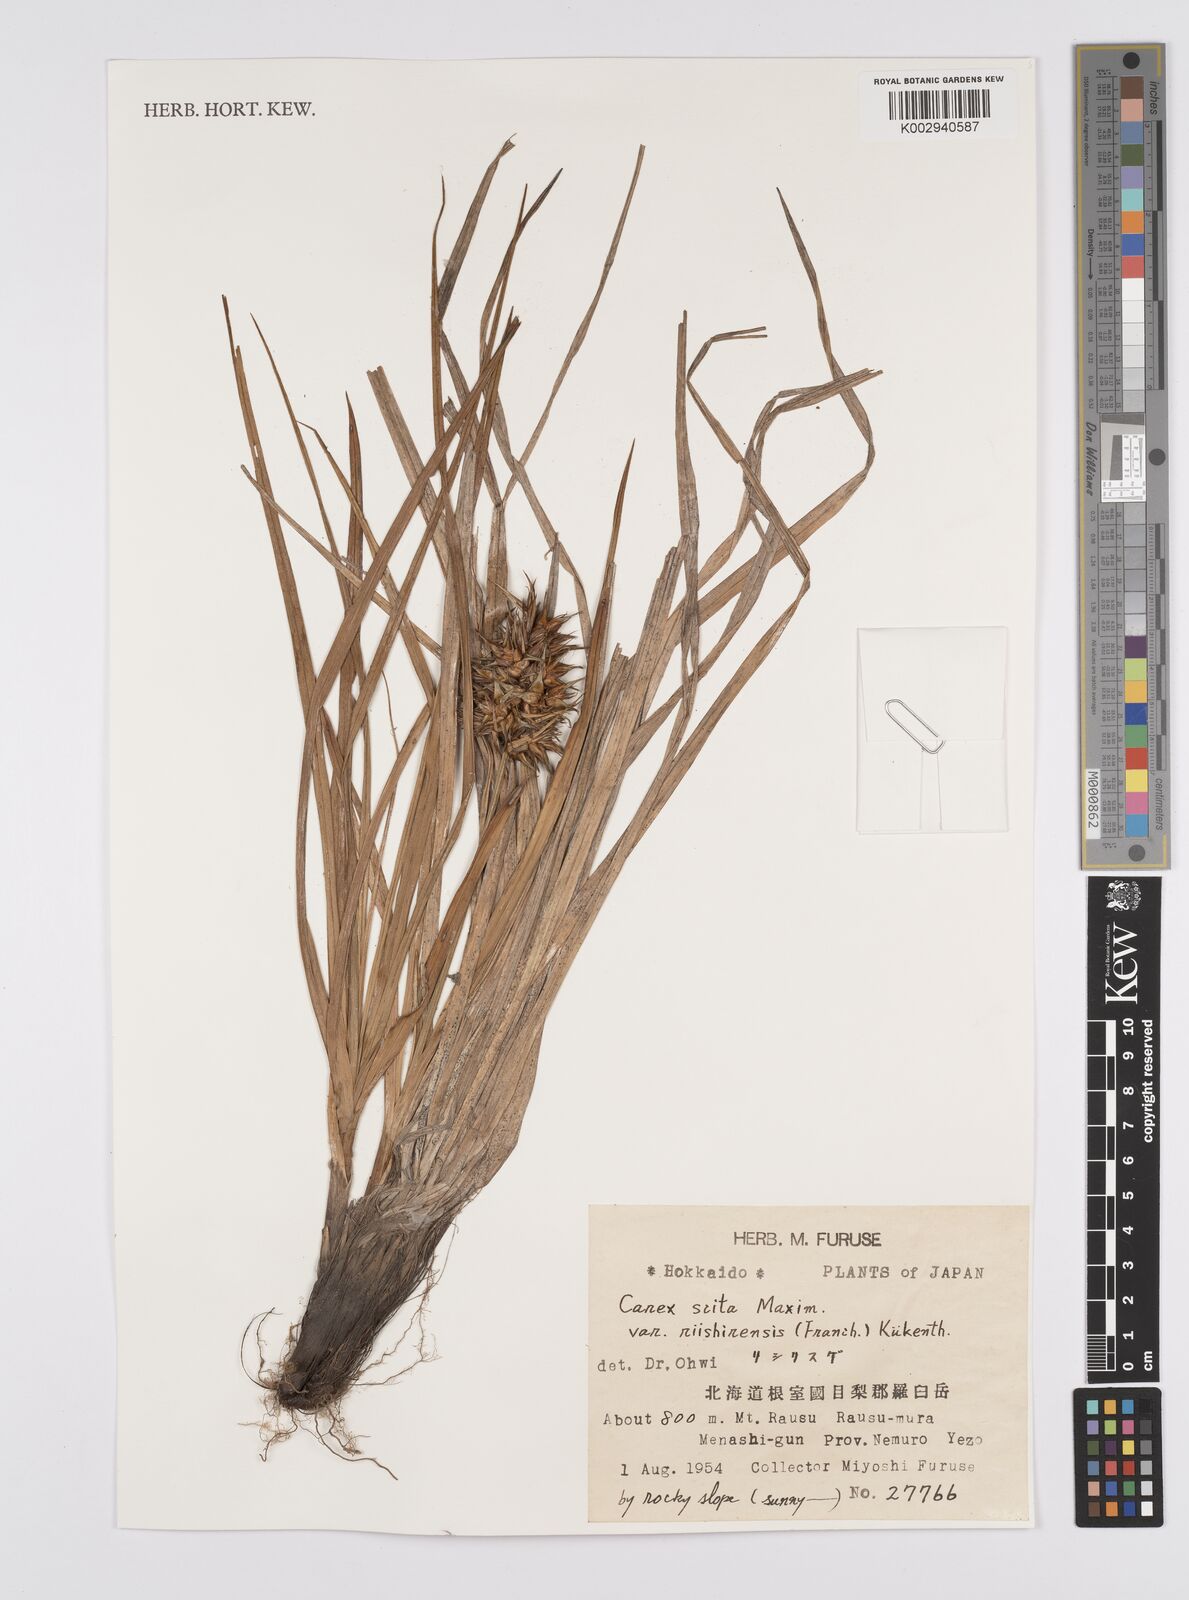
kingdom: Plantae
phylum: Tracheophyta
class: Liliopsida
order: Poales
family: Cyperaceae
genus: Carex
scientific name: Carex scita
